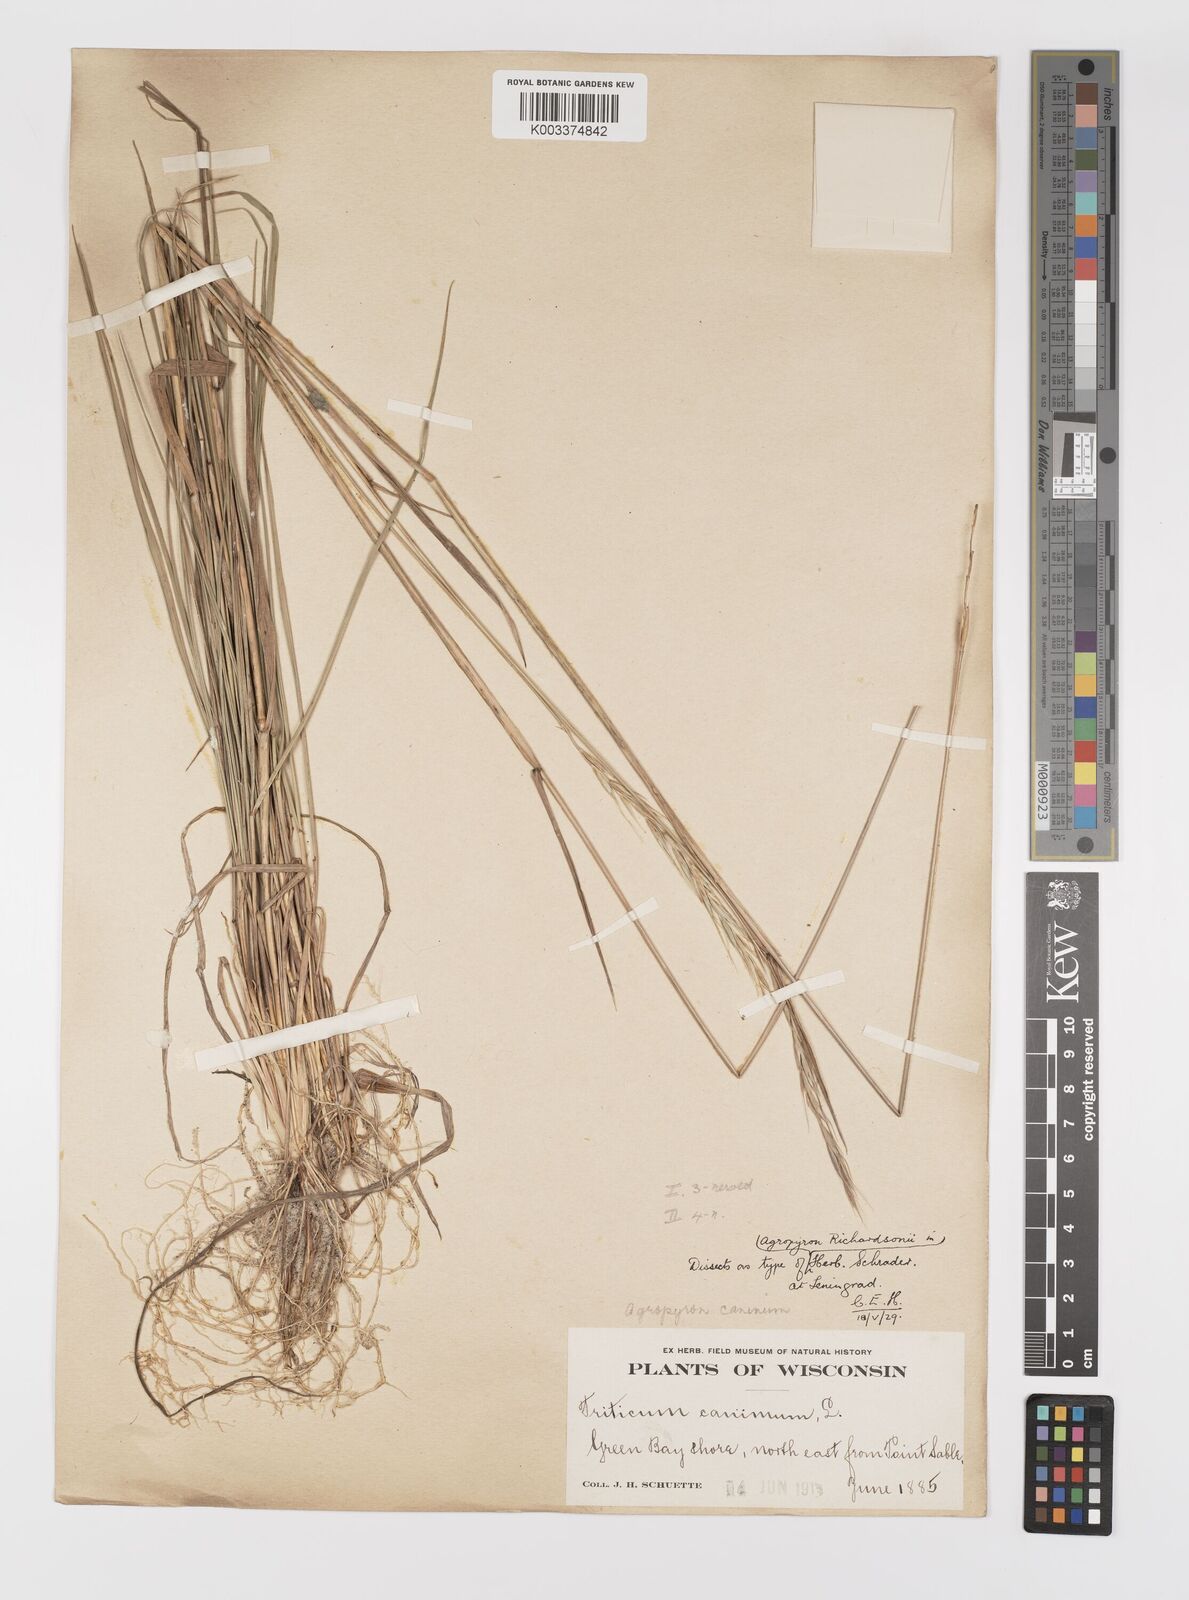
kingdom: Plantae
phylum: Tracheophyta
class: Liliopsida
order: Poales
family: Poaceae
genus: Elymus
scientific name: Elymus violaceus
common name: Arctic wheatgrass
